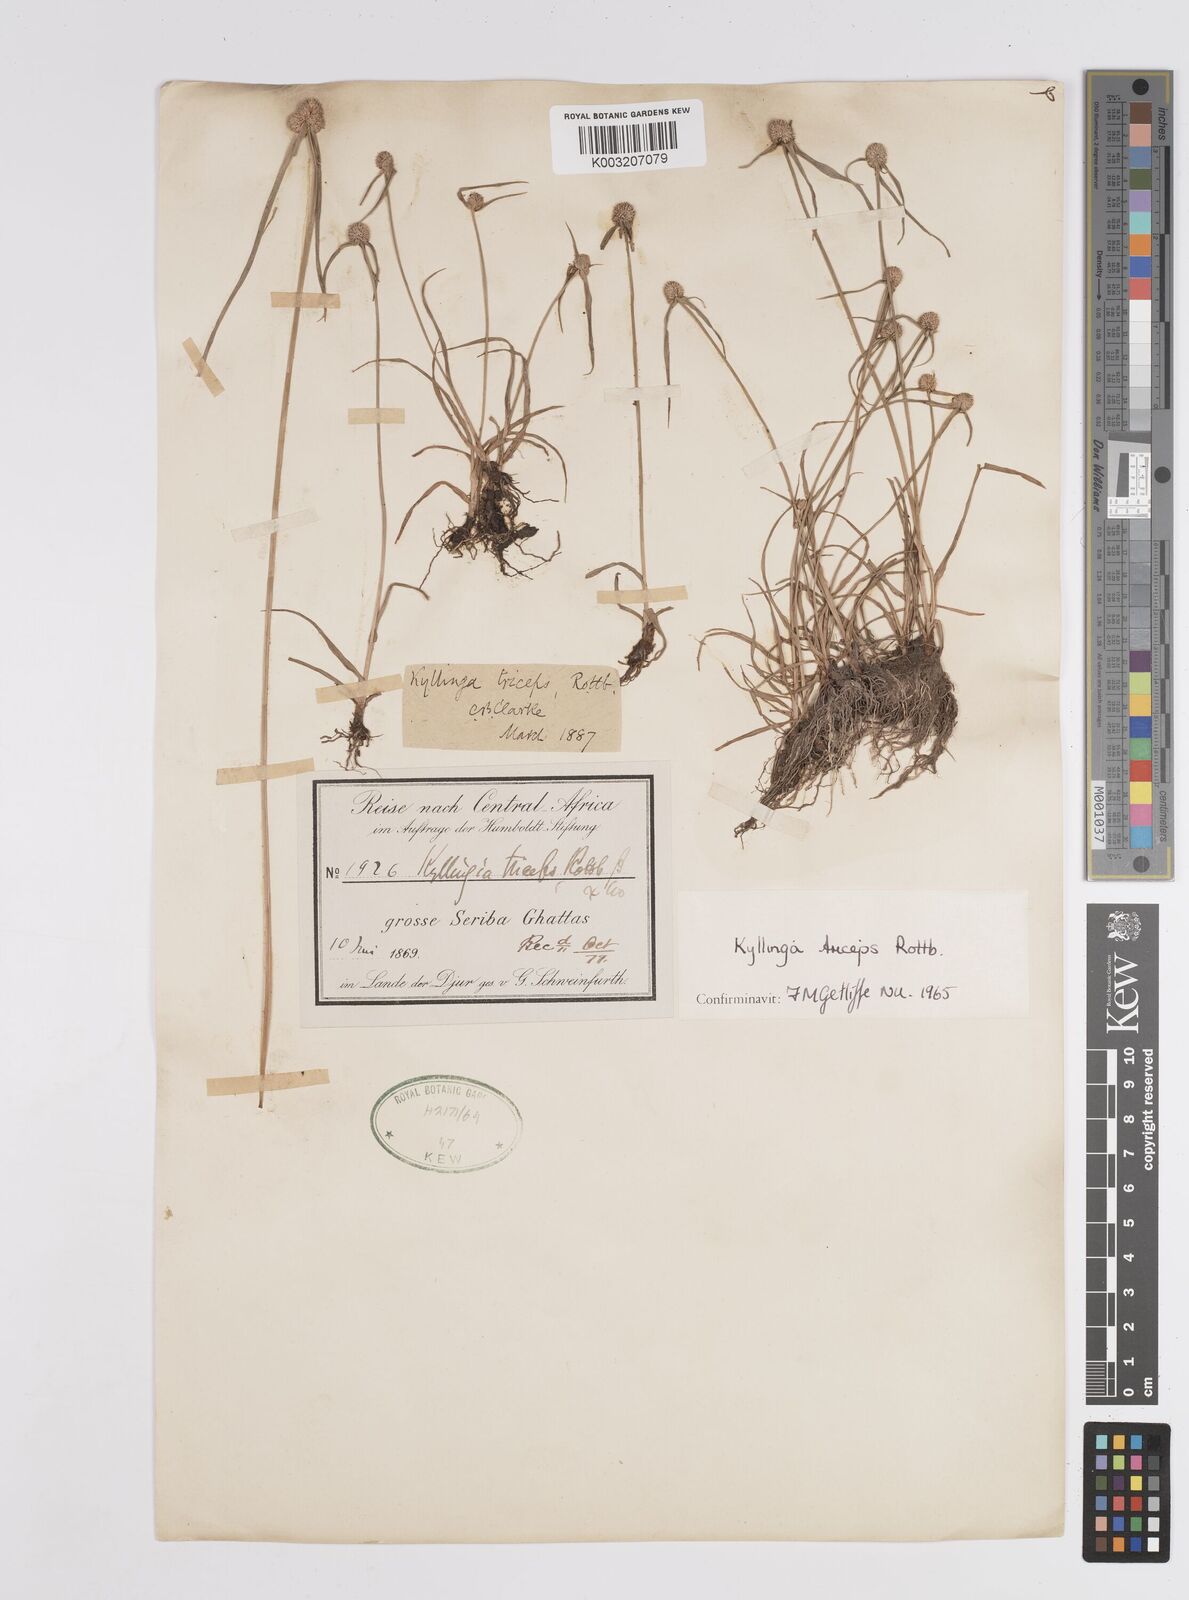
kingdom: Plantae
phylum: Tracheophyta
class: Liliopsida
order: Poales
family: Cyperaceae
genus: Cyperus
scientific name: Cyperus
